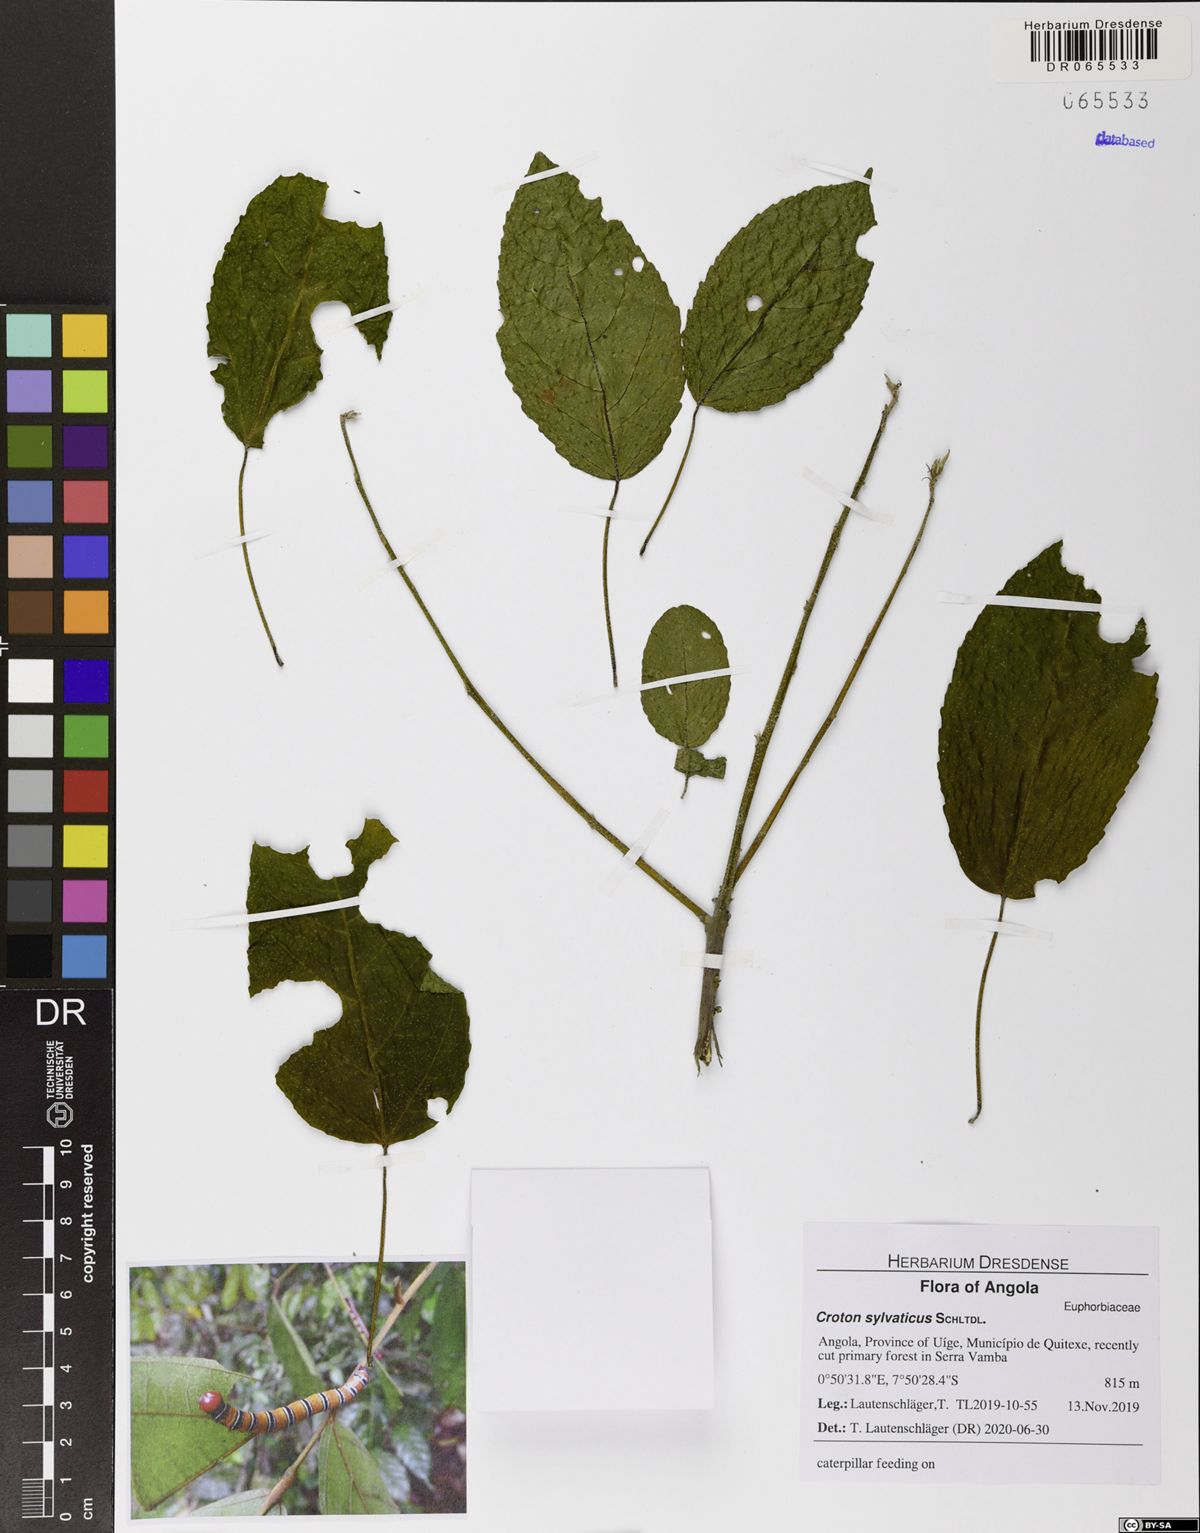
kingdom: Plantae
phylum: Tracheophyta
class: Magnoliopsida
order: Malpighiales
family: Euphorbiaceae
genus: Croton
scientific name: Croton reflexifolius
